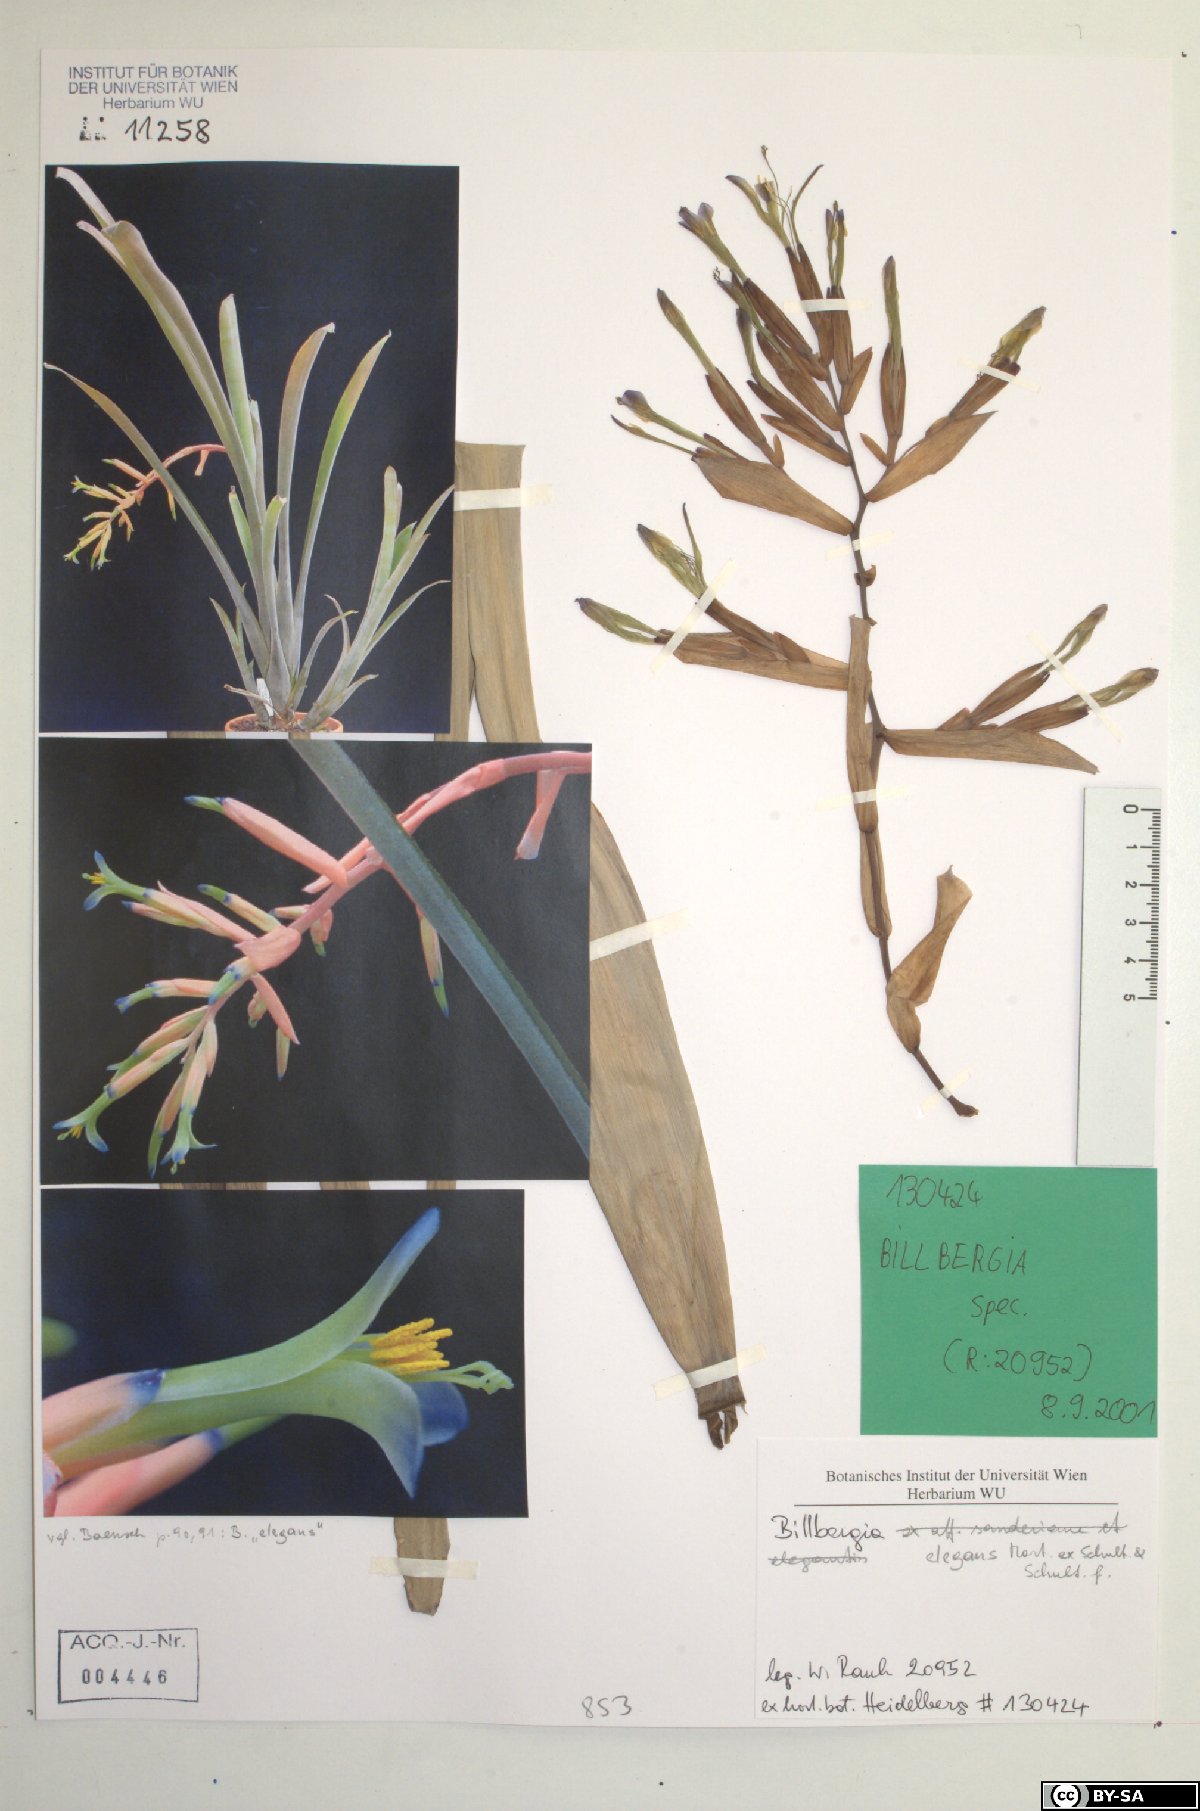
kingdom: Plantae
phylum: Tracheophyta
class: Liliopsida
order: Poales
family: Bromeliaceae
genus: Billbergia
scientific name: Billbergia speciosa
